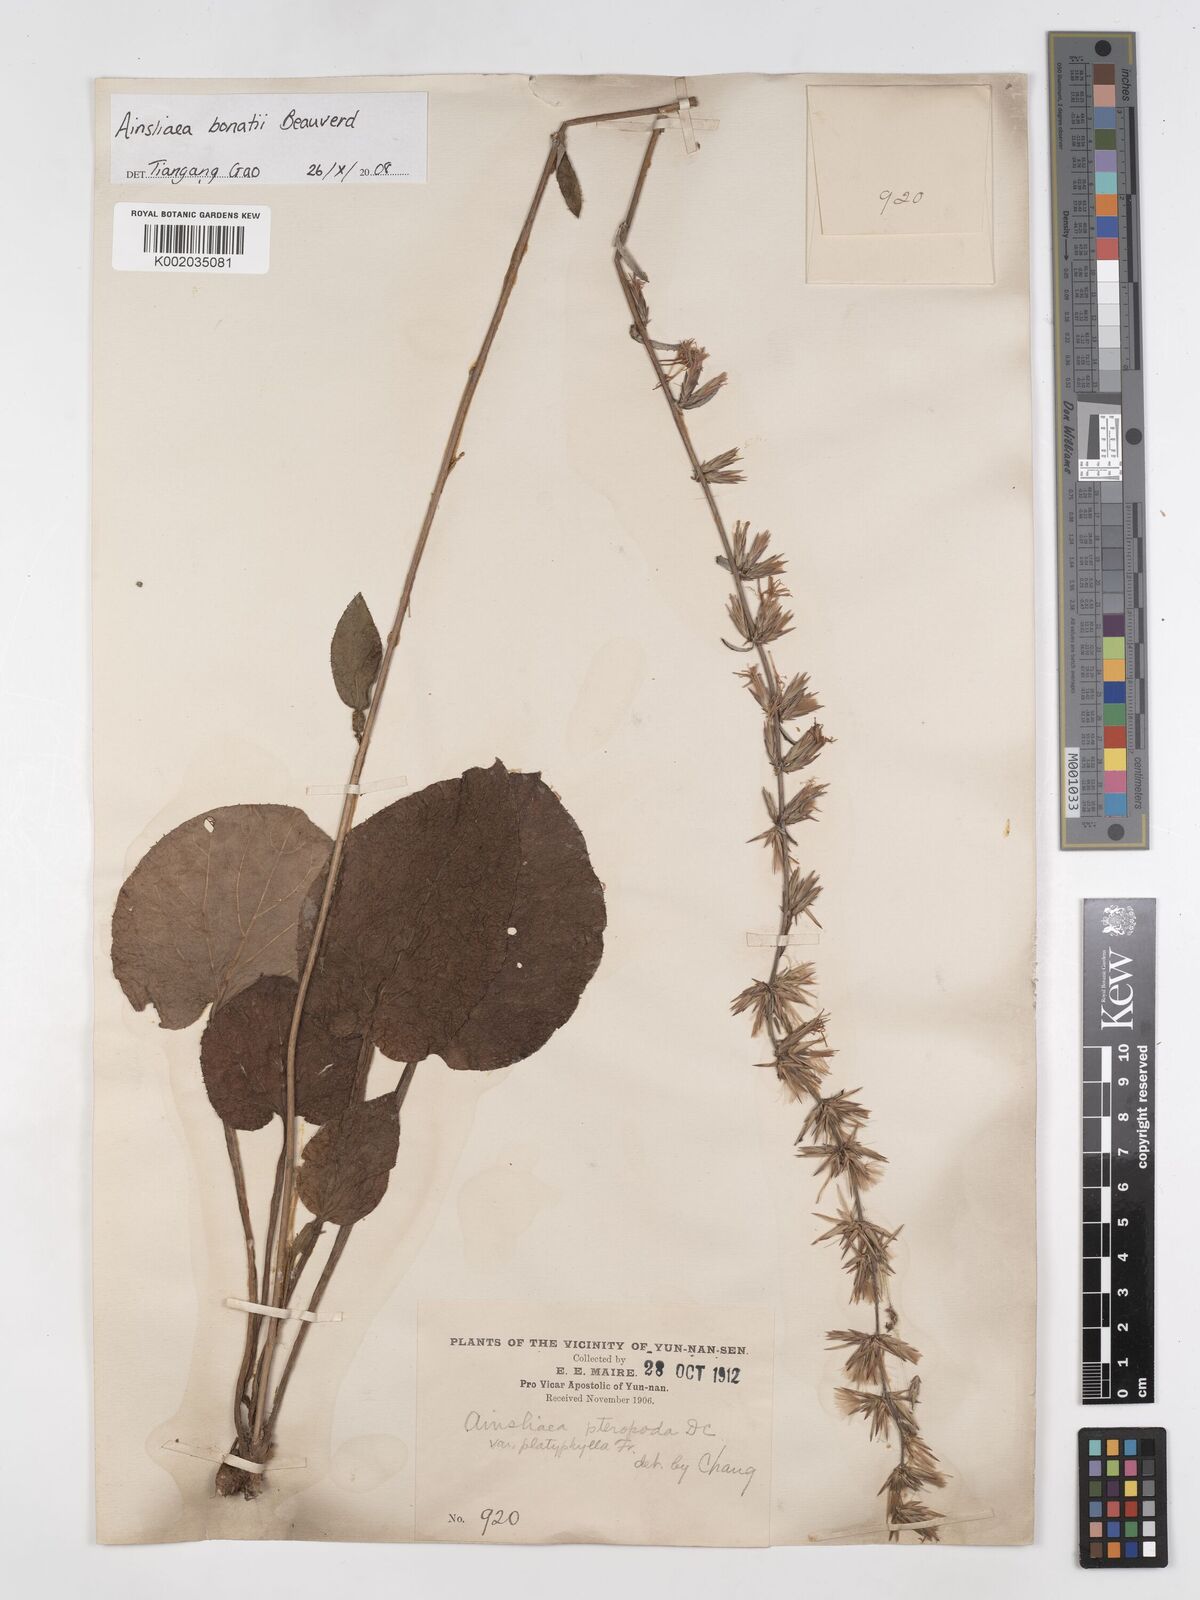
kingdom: Plantae
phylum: Tracheophyta
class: Magnoliopsida
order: Asterales
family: Asteraceae
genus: Ainsliaea
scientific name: Ainsliaea bonatii
